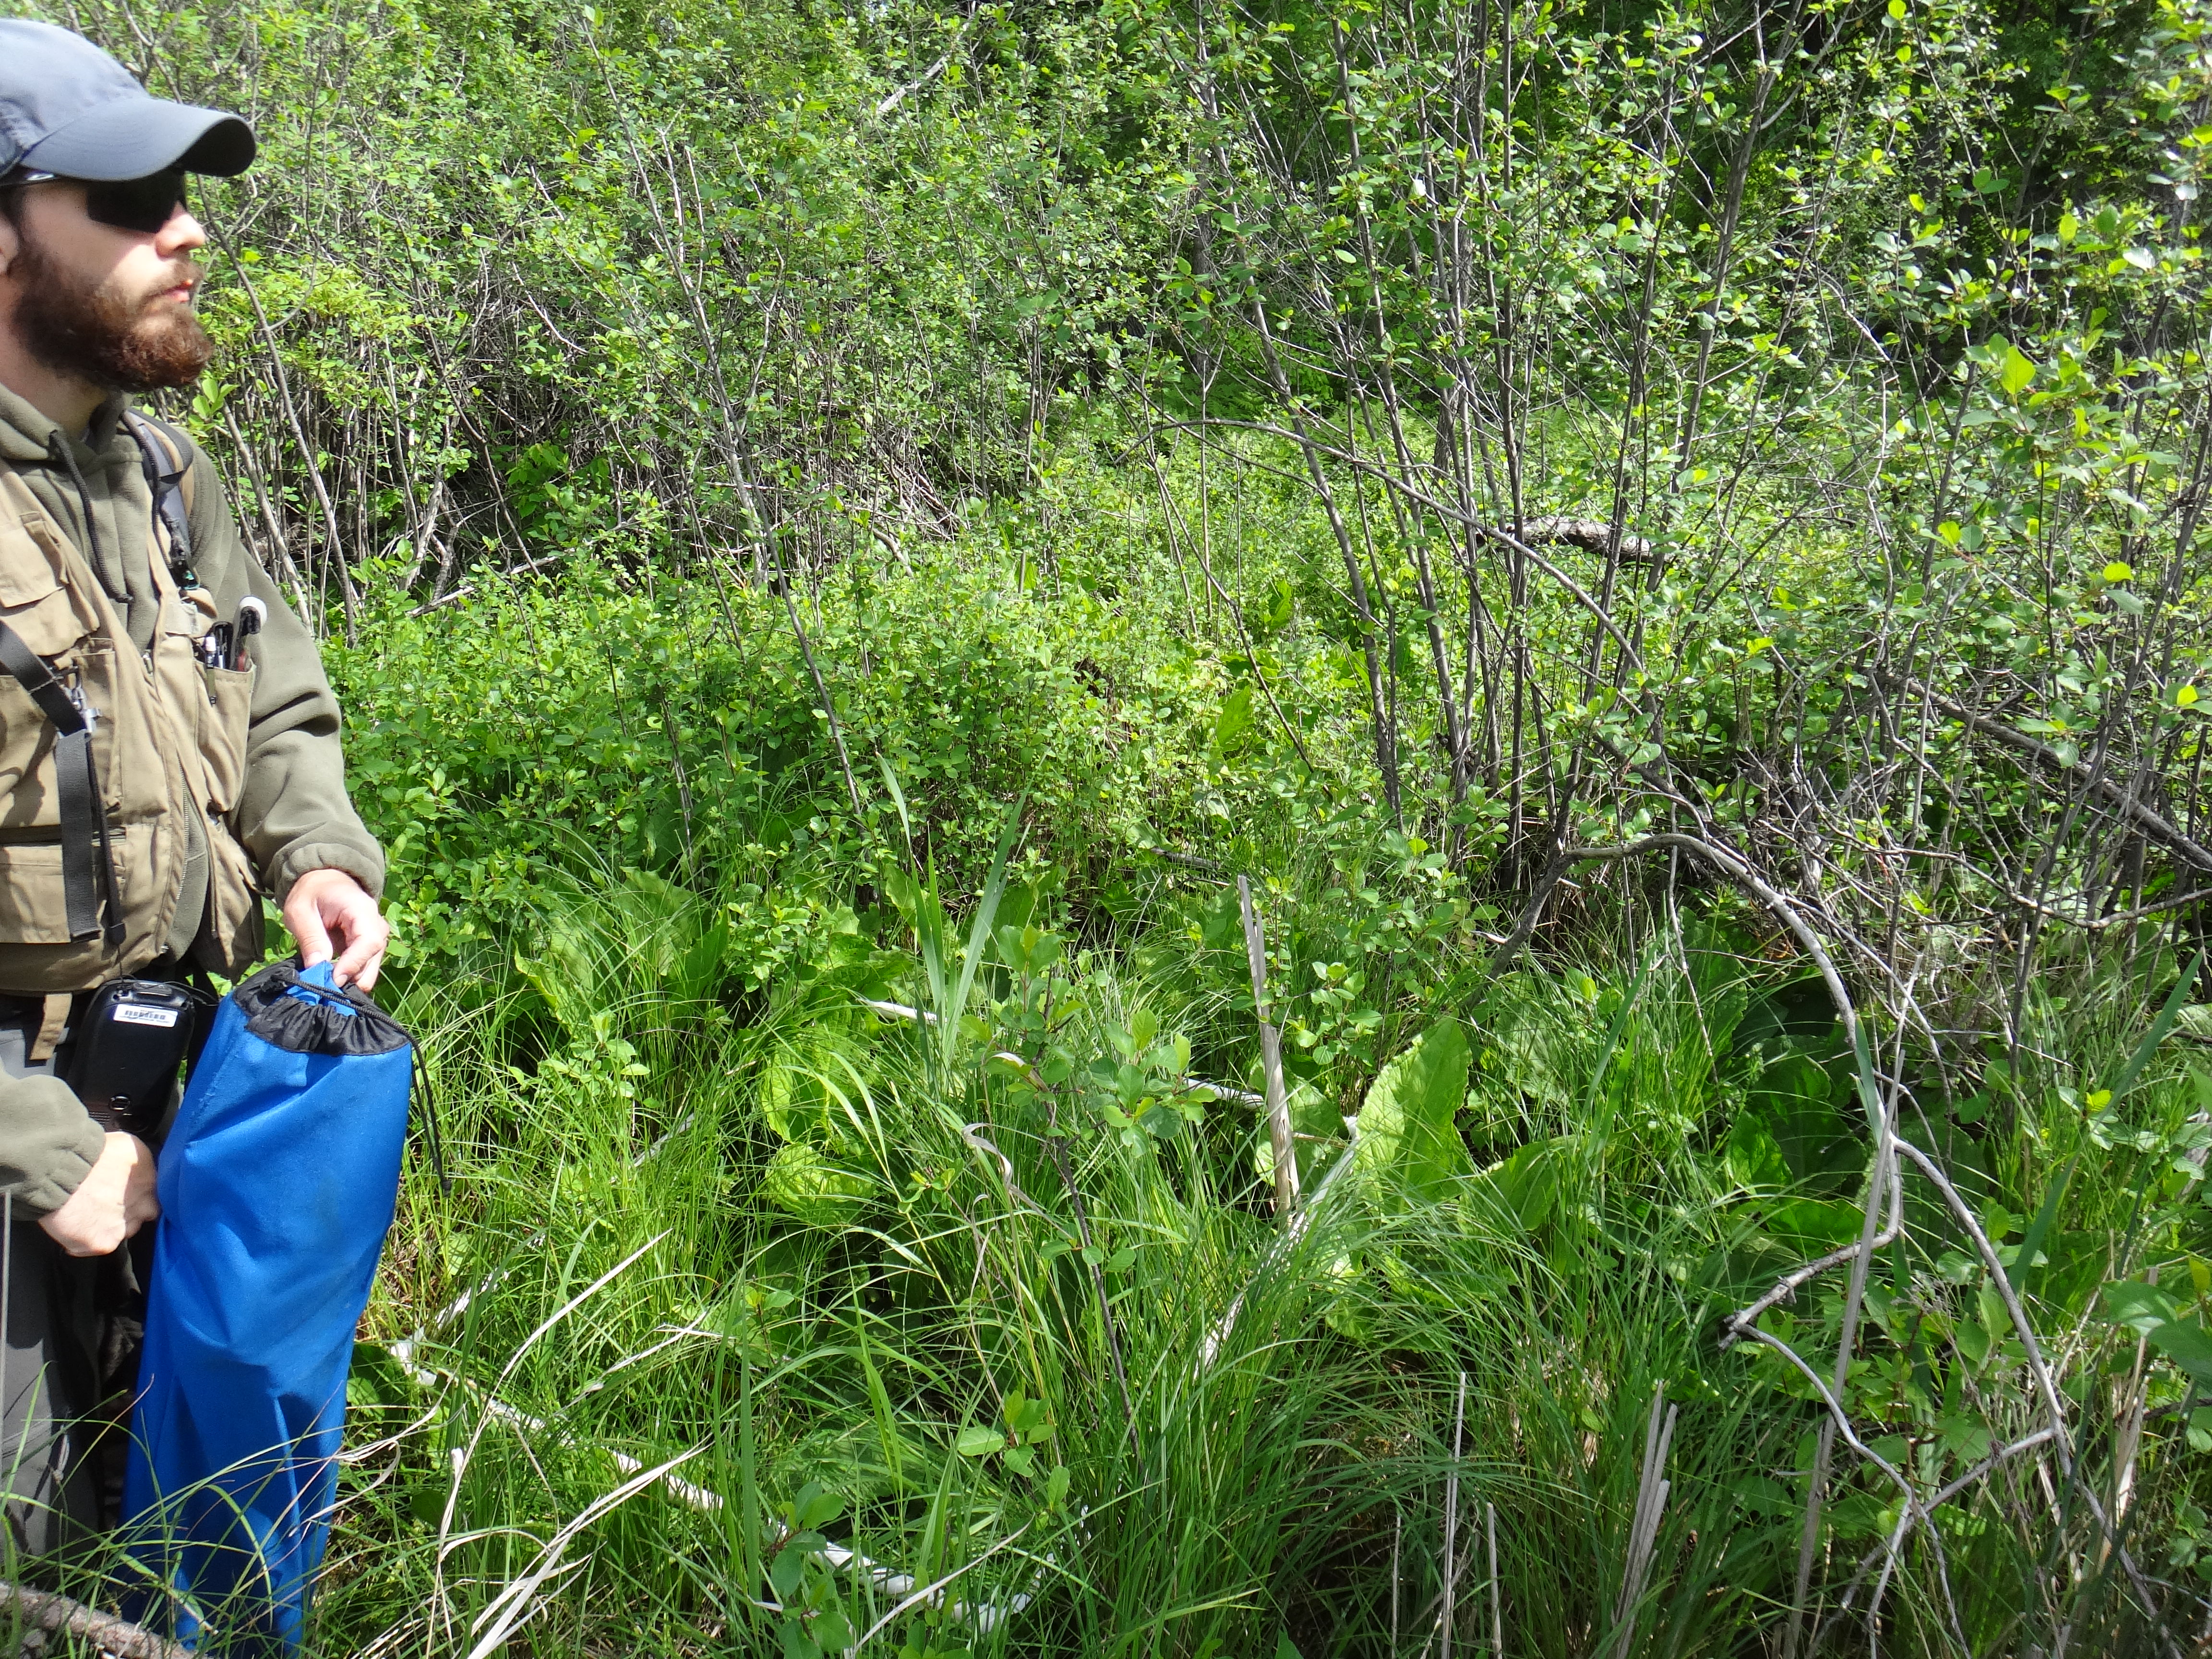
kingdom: Plantae
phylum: Tracheophyta
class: Magnoliopsida
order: Asterales
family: Asteraceae
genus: Symphyotrichum
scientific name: Symphyotrichum lateriflorum
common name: Calico aster
